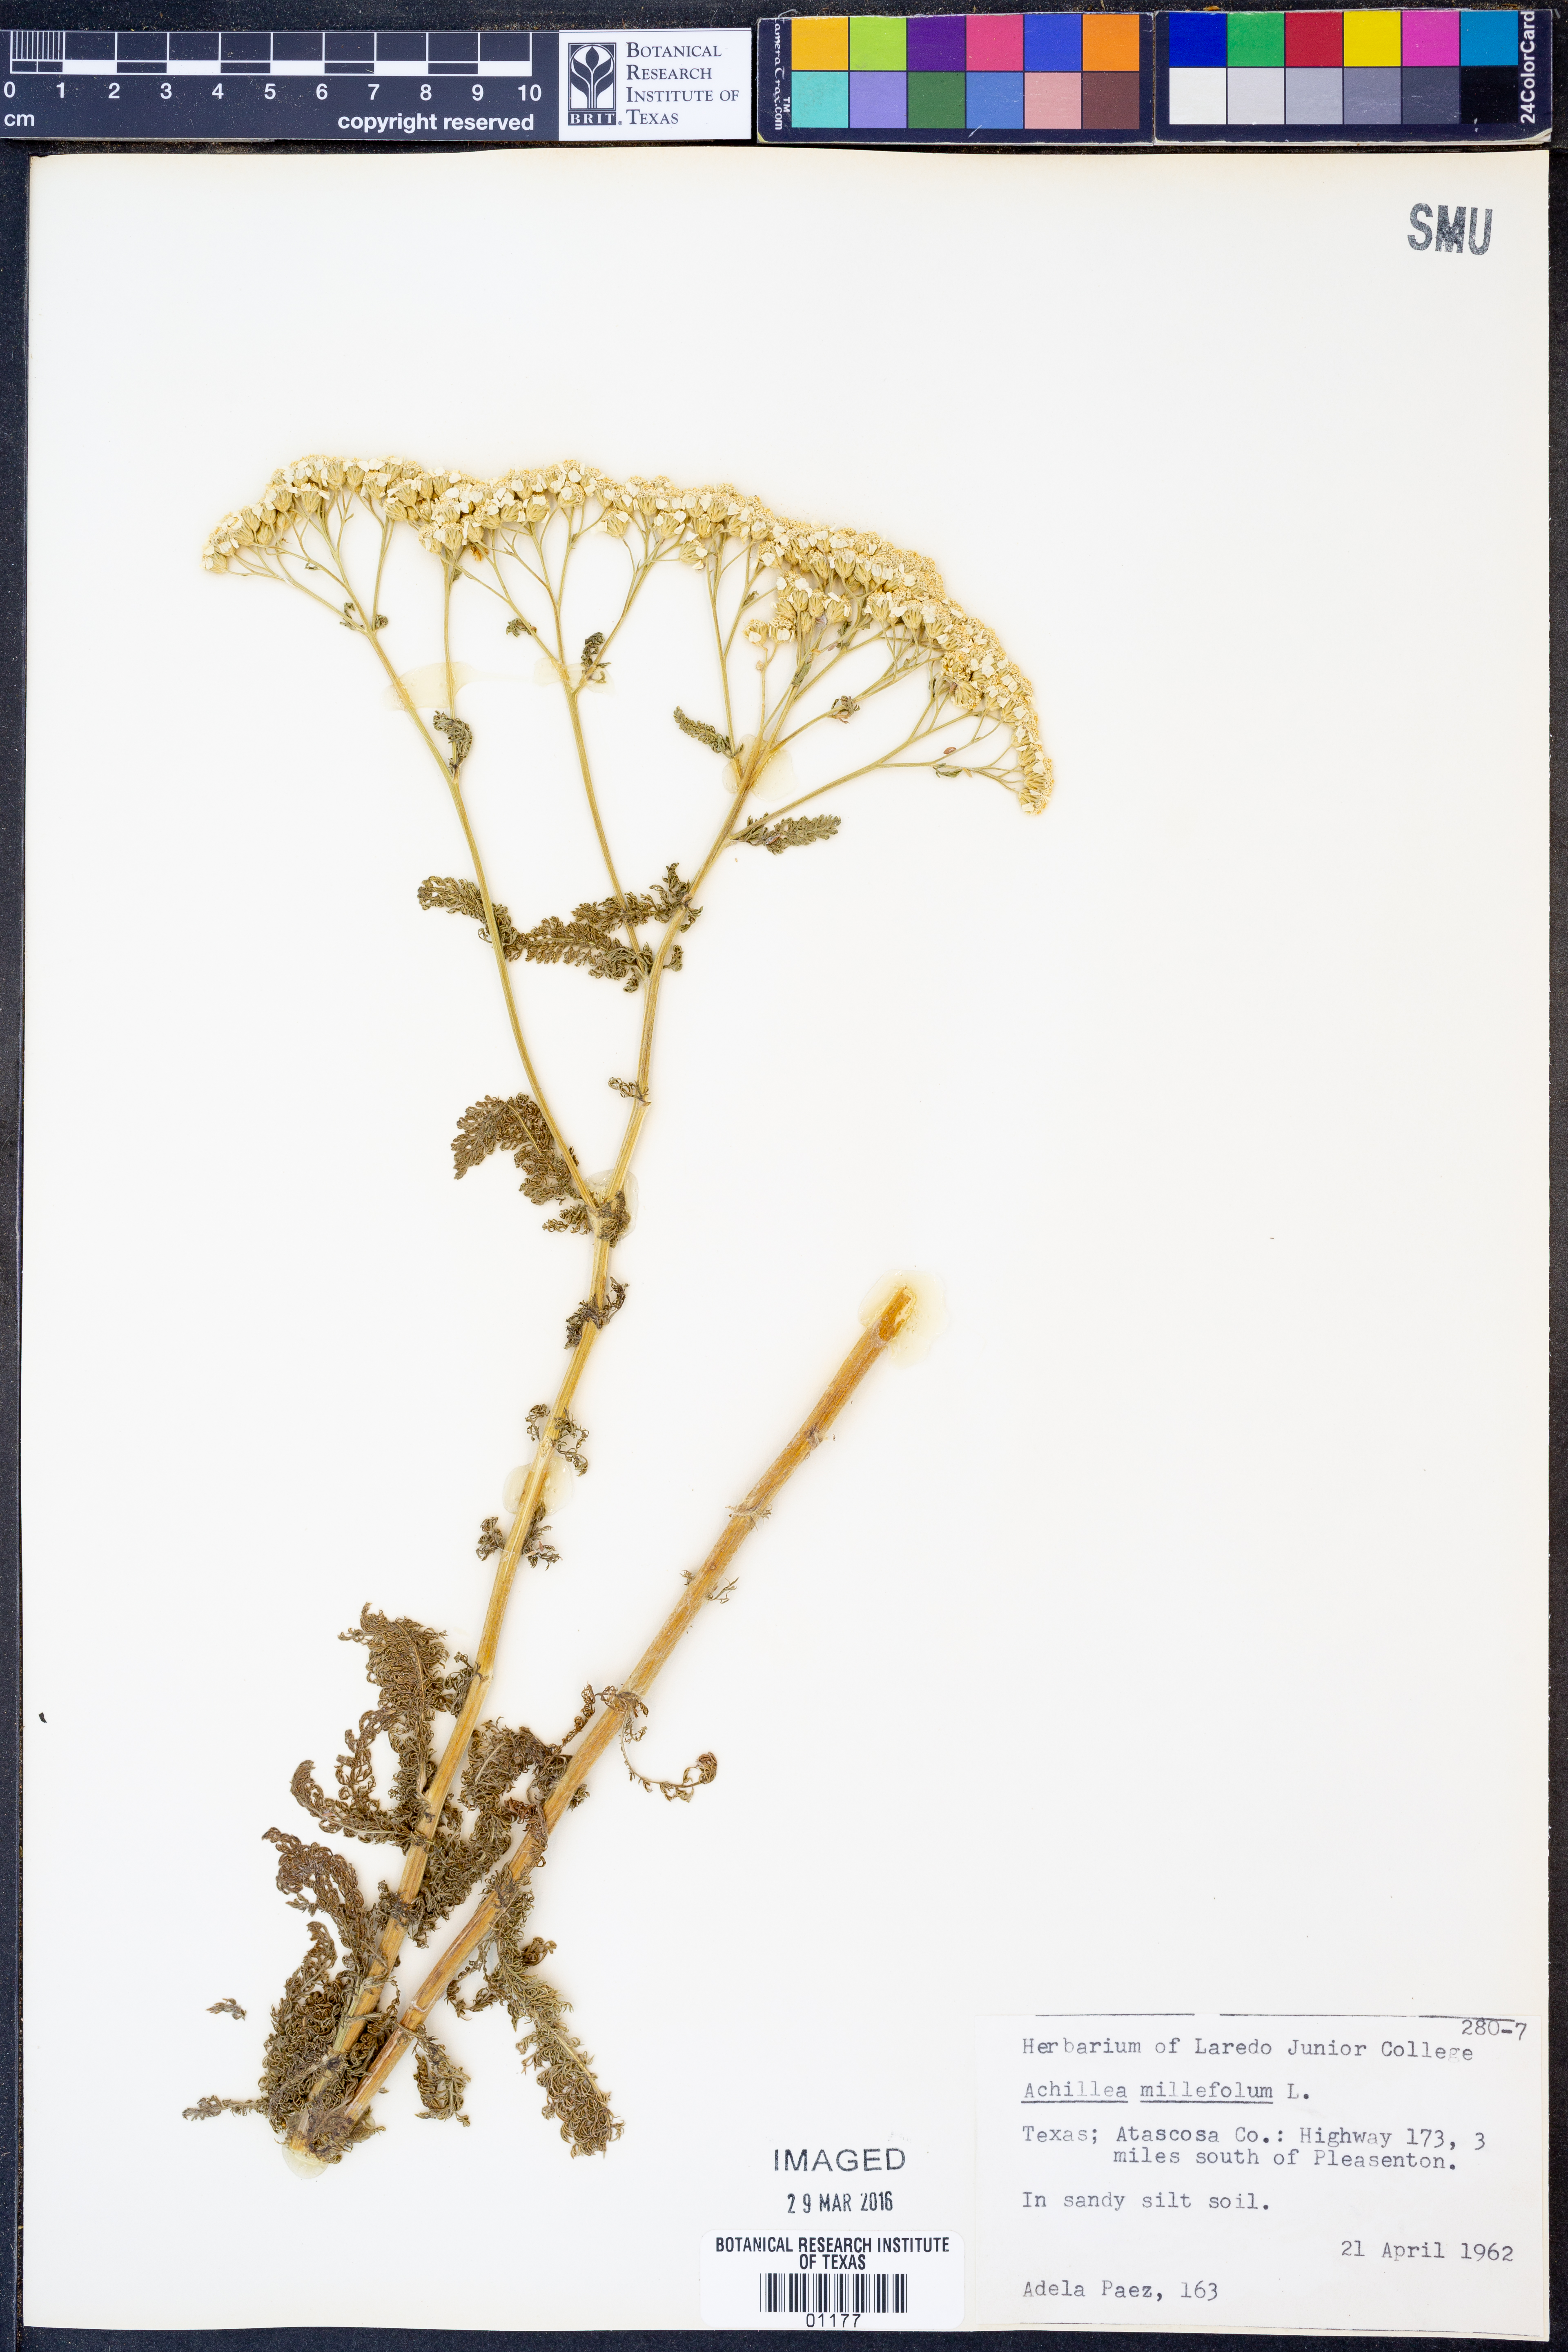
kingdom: Plantae
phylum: Tracheophyta
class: Magnoliopsida
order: Asterales
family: Asteraceae
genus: Achillea
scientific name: Achillea millefolium
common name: Yarrow
